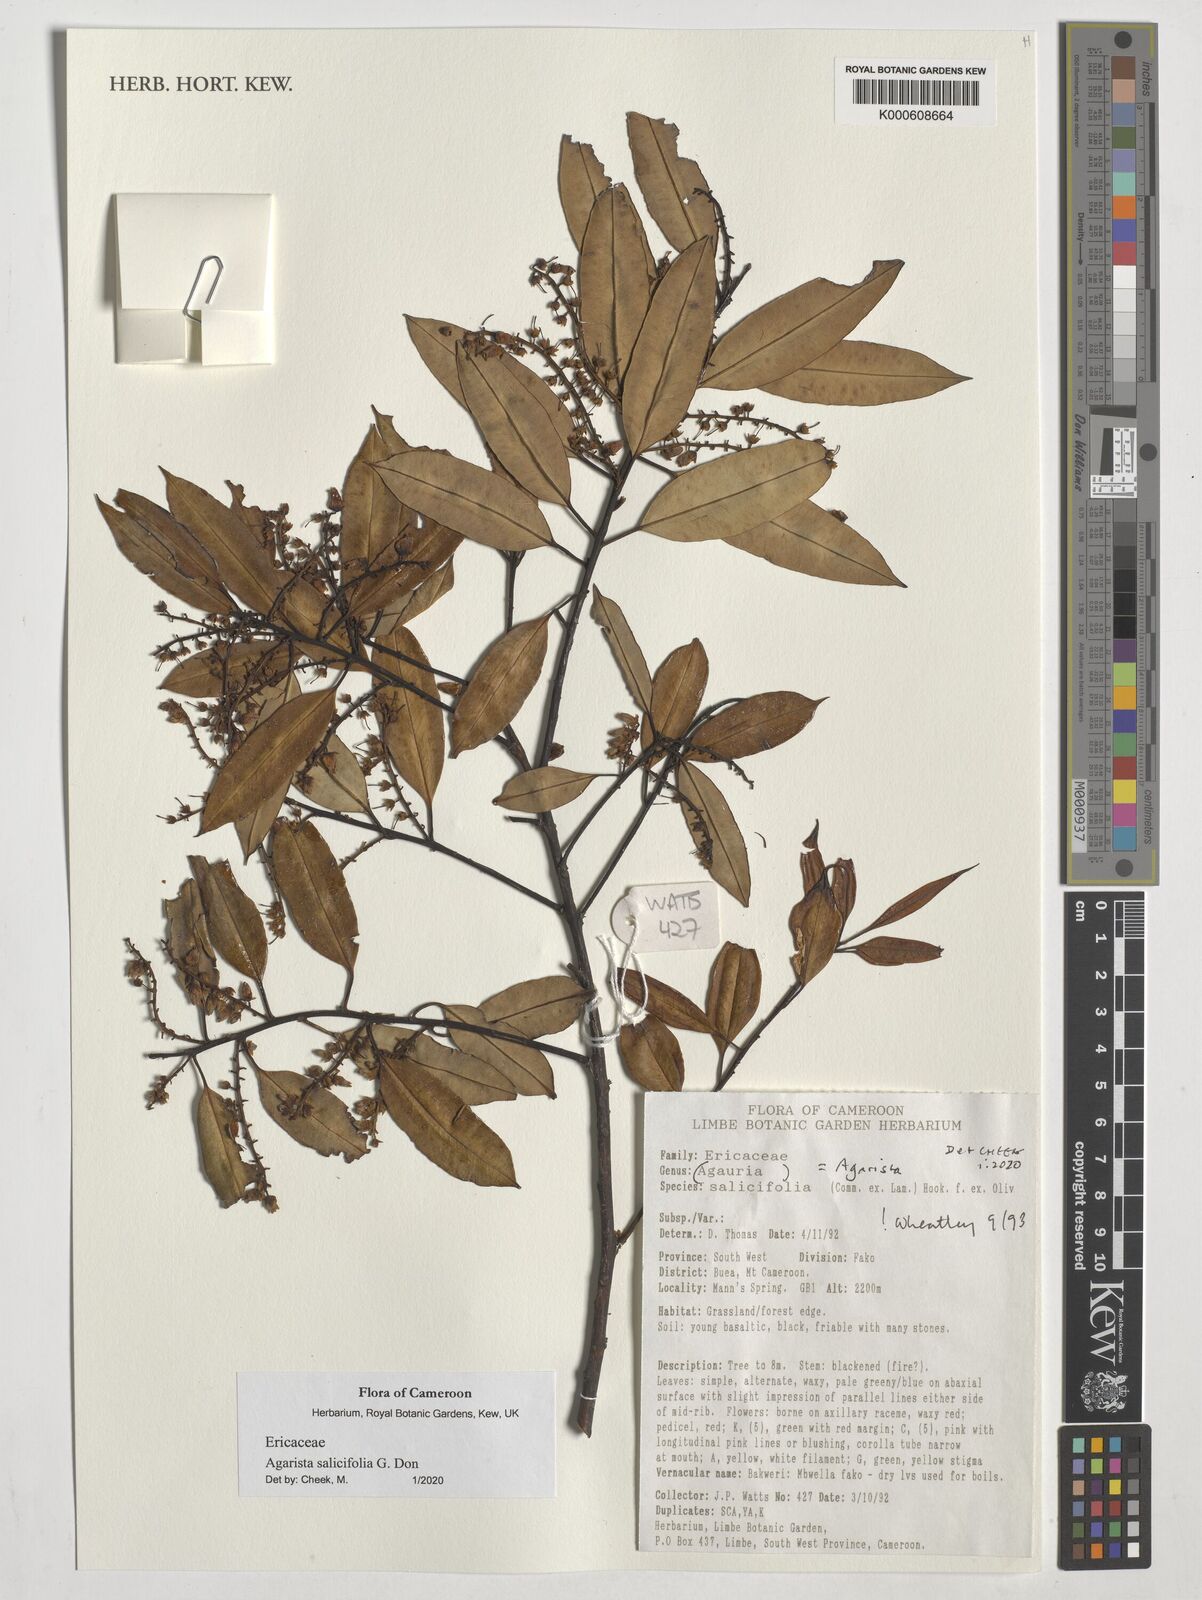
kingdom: Plantae
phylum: Tracheophyta
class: Magnoliopsida
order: Ericales
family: Ericaceae
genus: Agarista
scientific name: Agarista salicifolia
